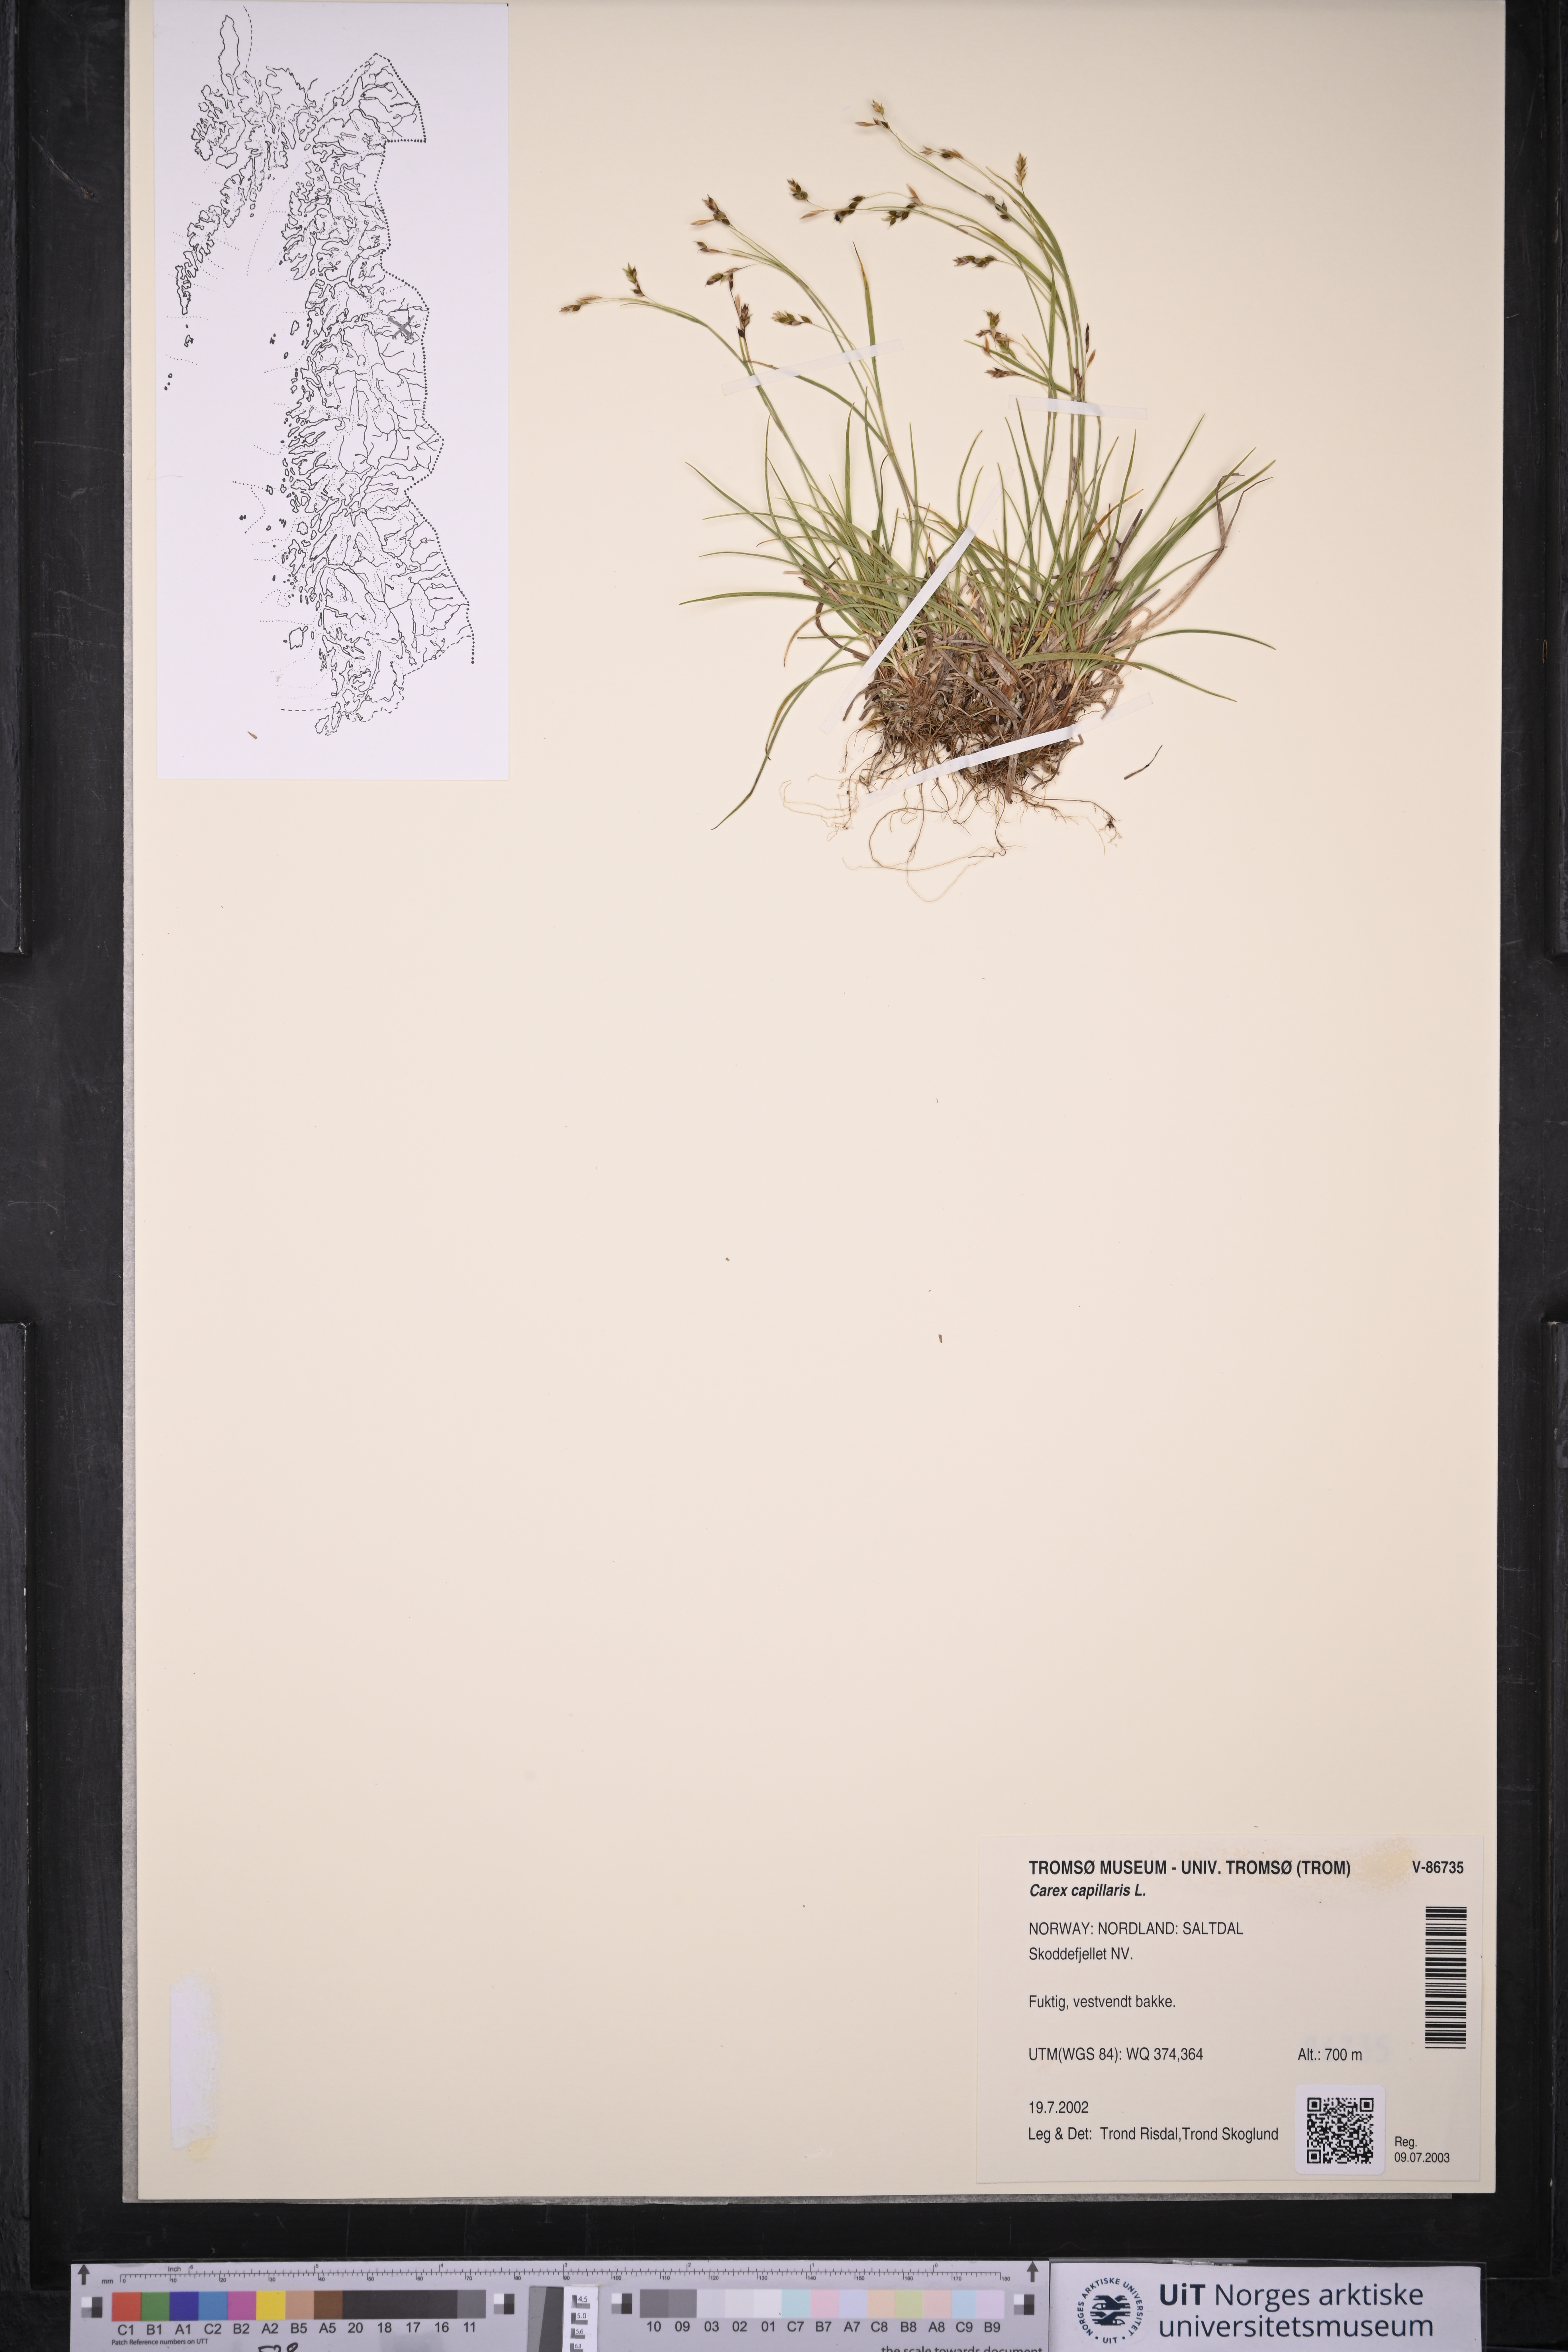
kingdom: Plantae
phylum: Tracheophyta
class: Liliopsida
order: Poales
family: Cyperaceae
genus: Carex
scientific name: Carex capillaris
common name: Hair sedge
